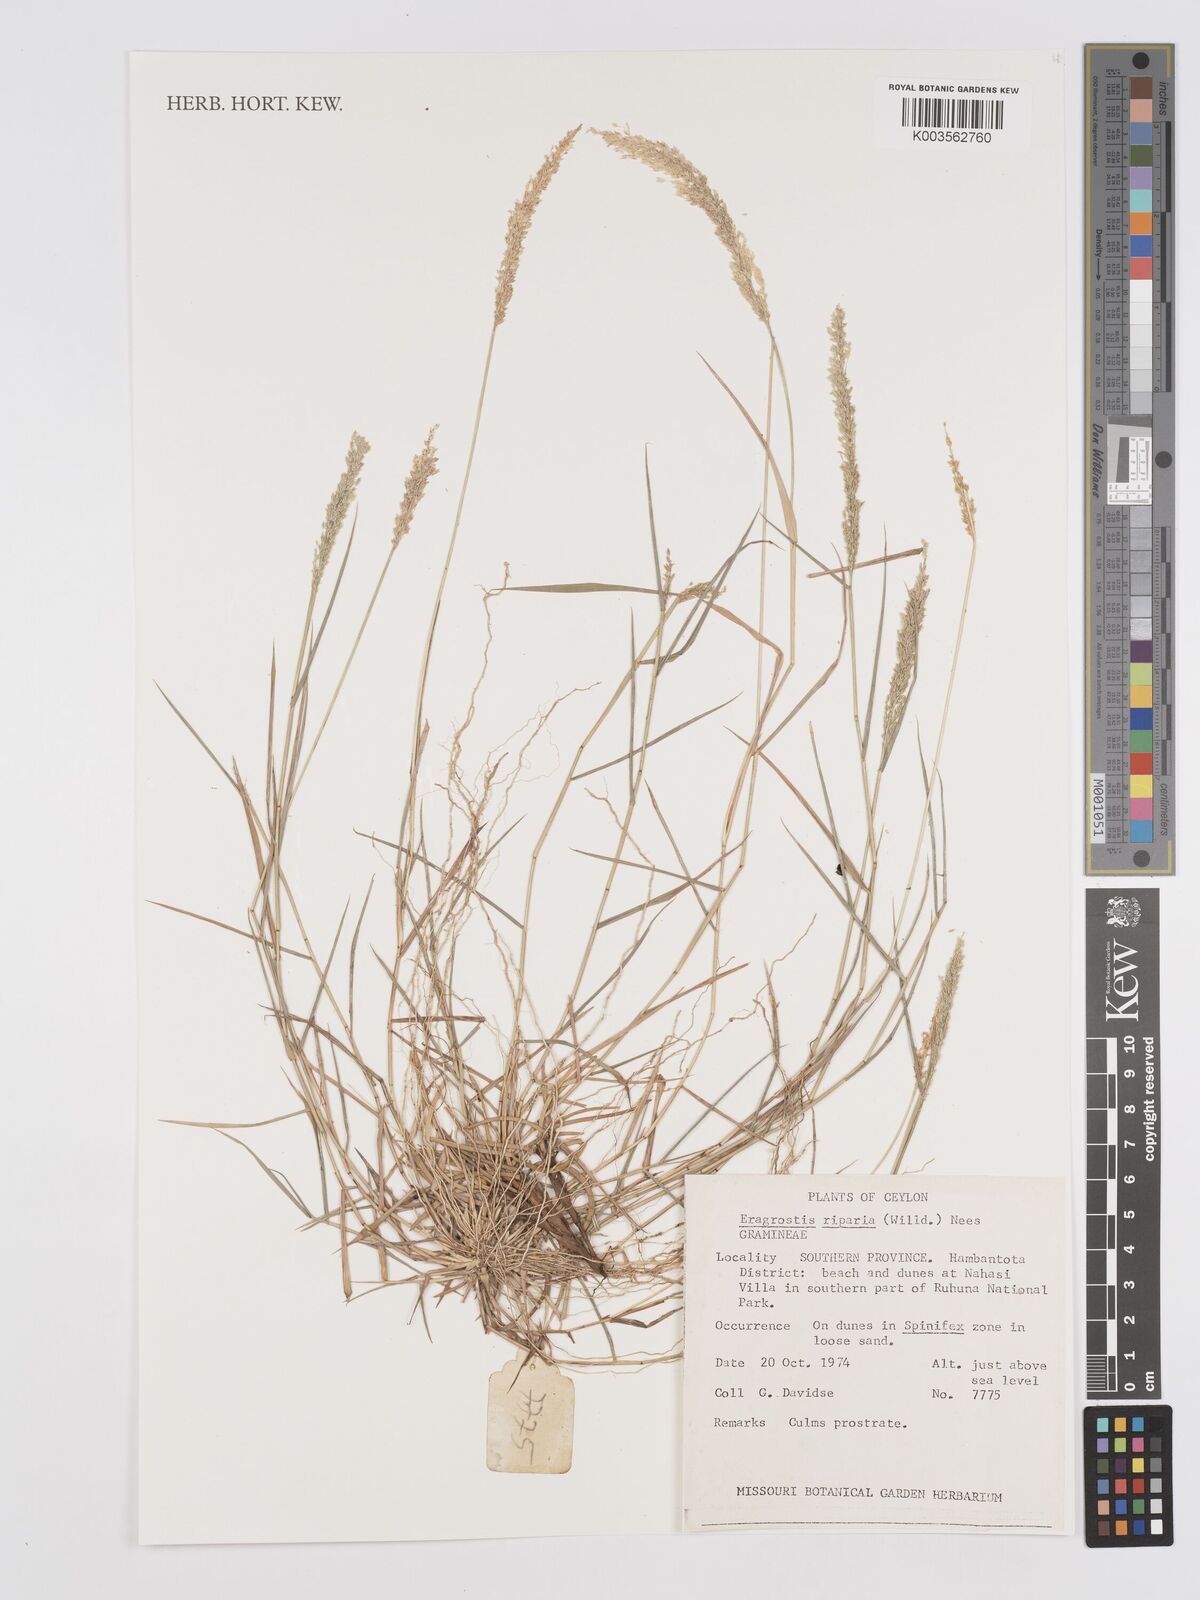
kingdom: Plantae
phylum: Tracheophyta
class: Liliopsida
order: Poales
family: Poaceae
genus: Eragrostis
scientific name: Eragrostis riparia
